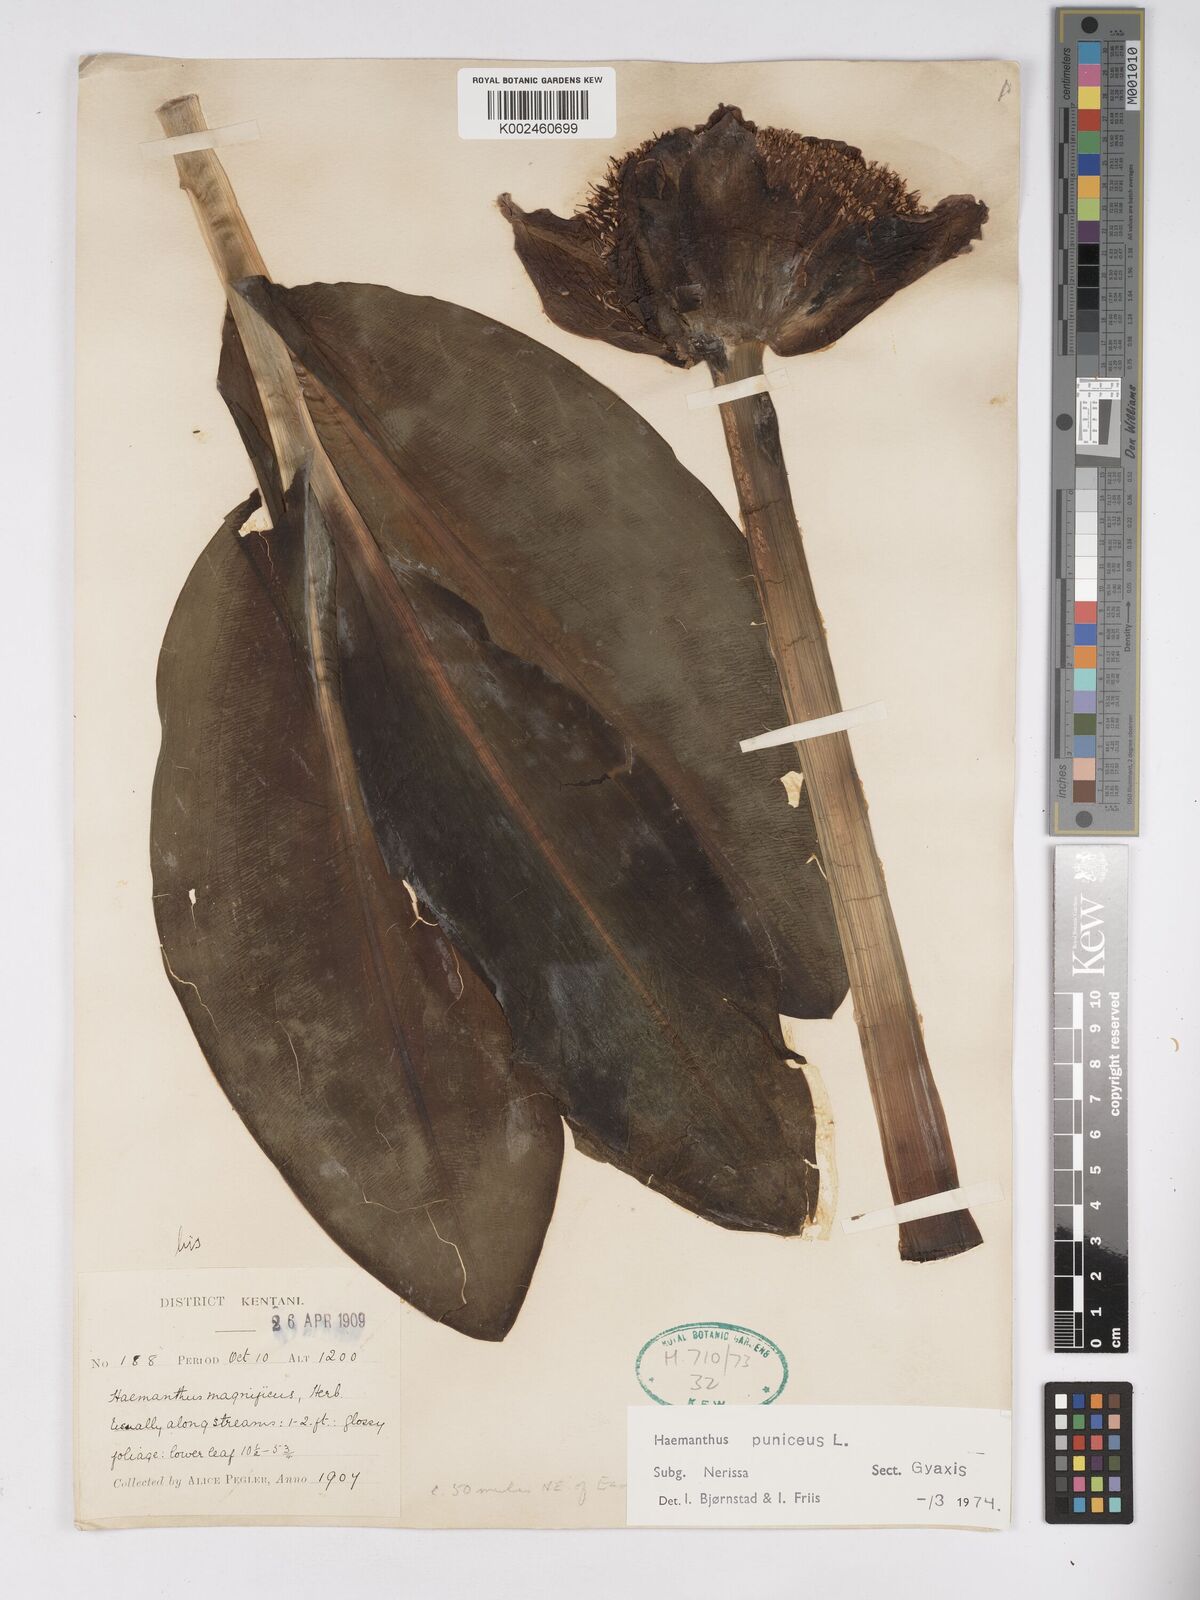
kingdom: Plantae
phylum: Tracheophyta
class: Liliopsida
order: Asparagales
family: Amaryllidaceae
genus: Scadoxus
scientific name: Scadoxus puniceus
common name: Royal-paintbrush
